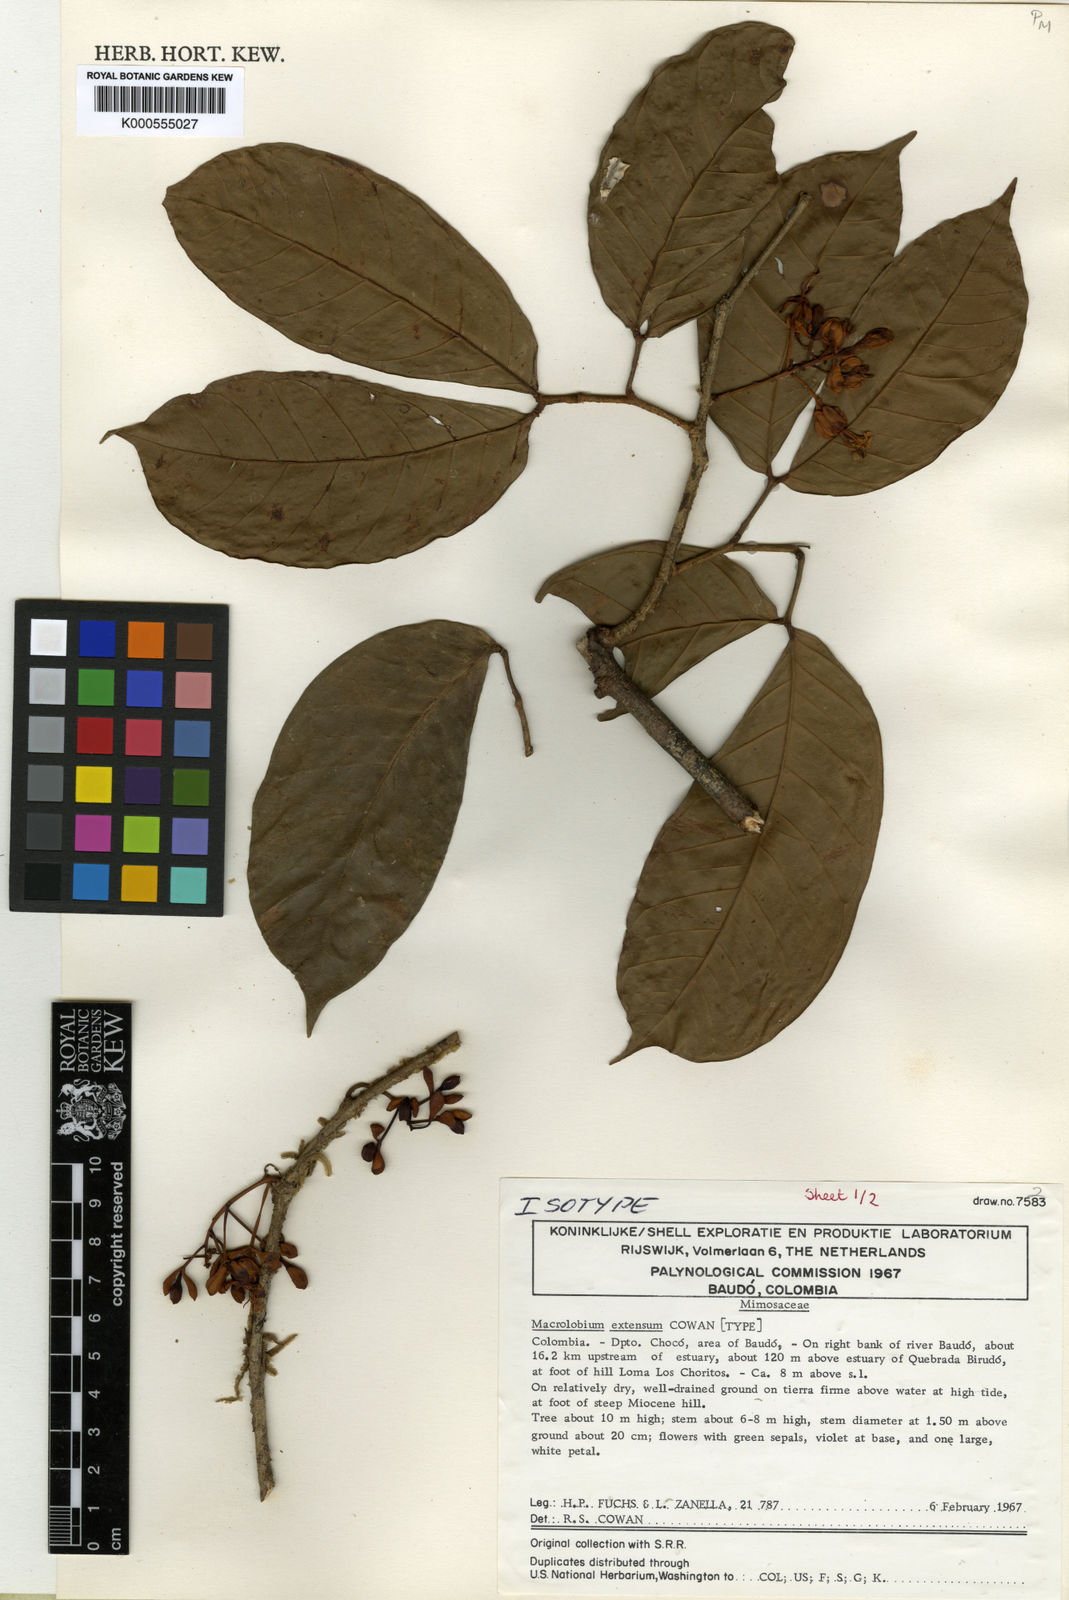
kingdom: Plantae
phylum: Tracheophyta
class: Magnoliopsida
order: Fabales
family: Fabaceae
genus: Macrolobium
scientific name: Macrolobium extensum
